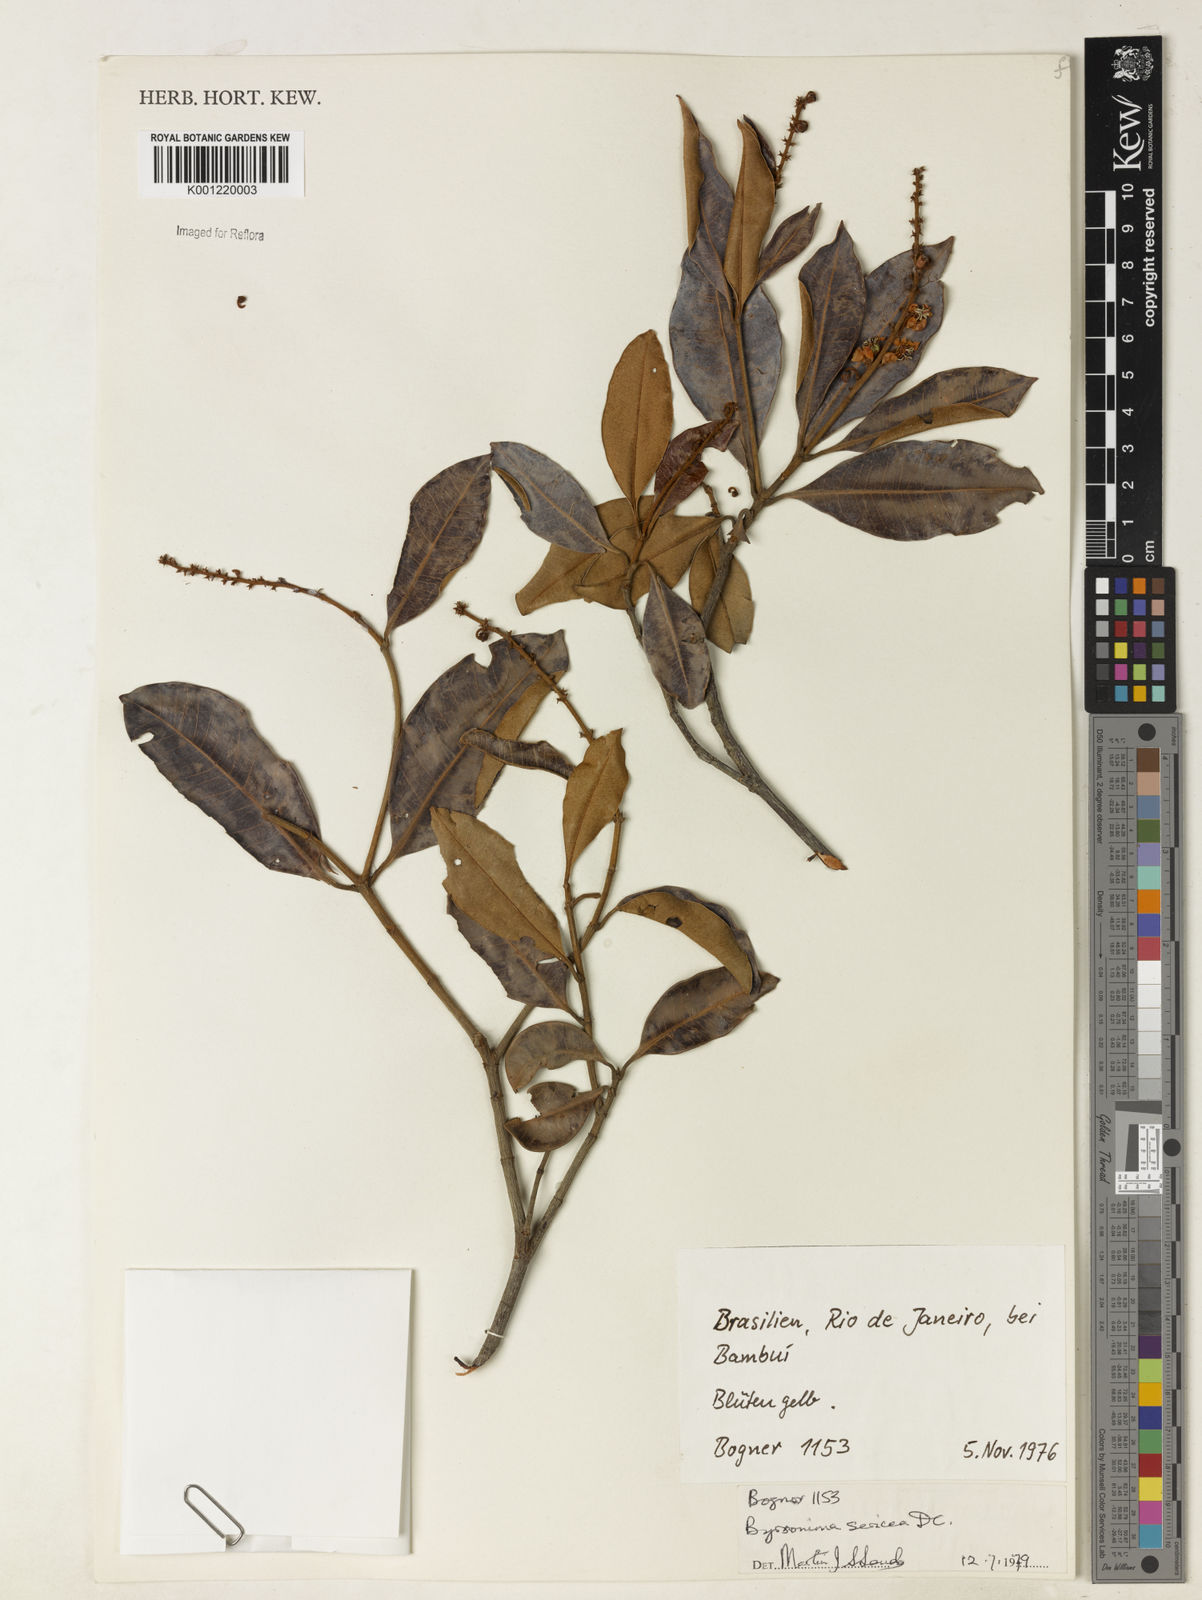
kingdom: Plantae
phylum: Tracheophyta
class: Magnoliopsida
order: Malpighiales
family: Malpighiaceae
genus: Byrsonima
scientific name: Byrsonima sericea
